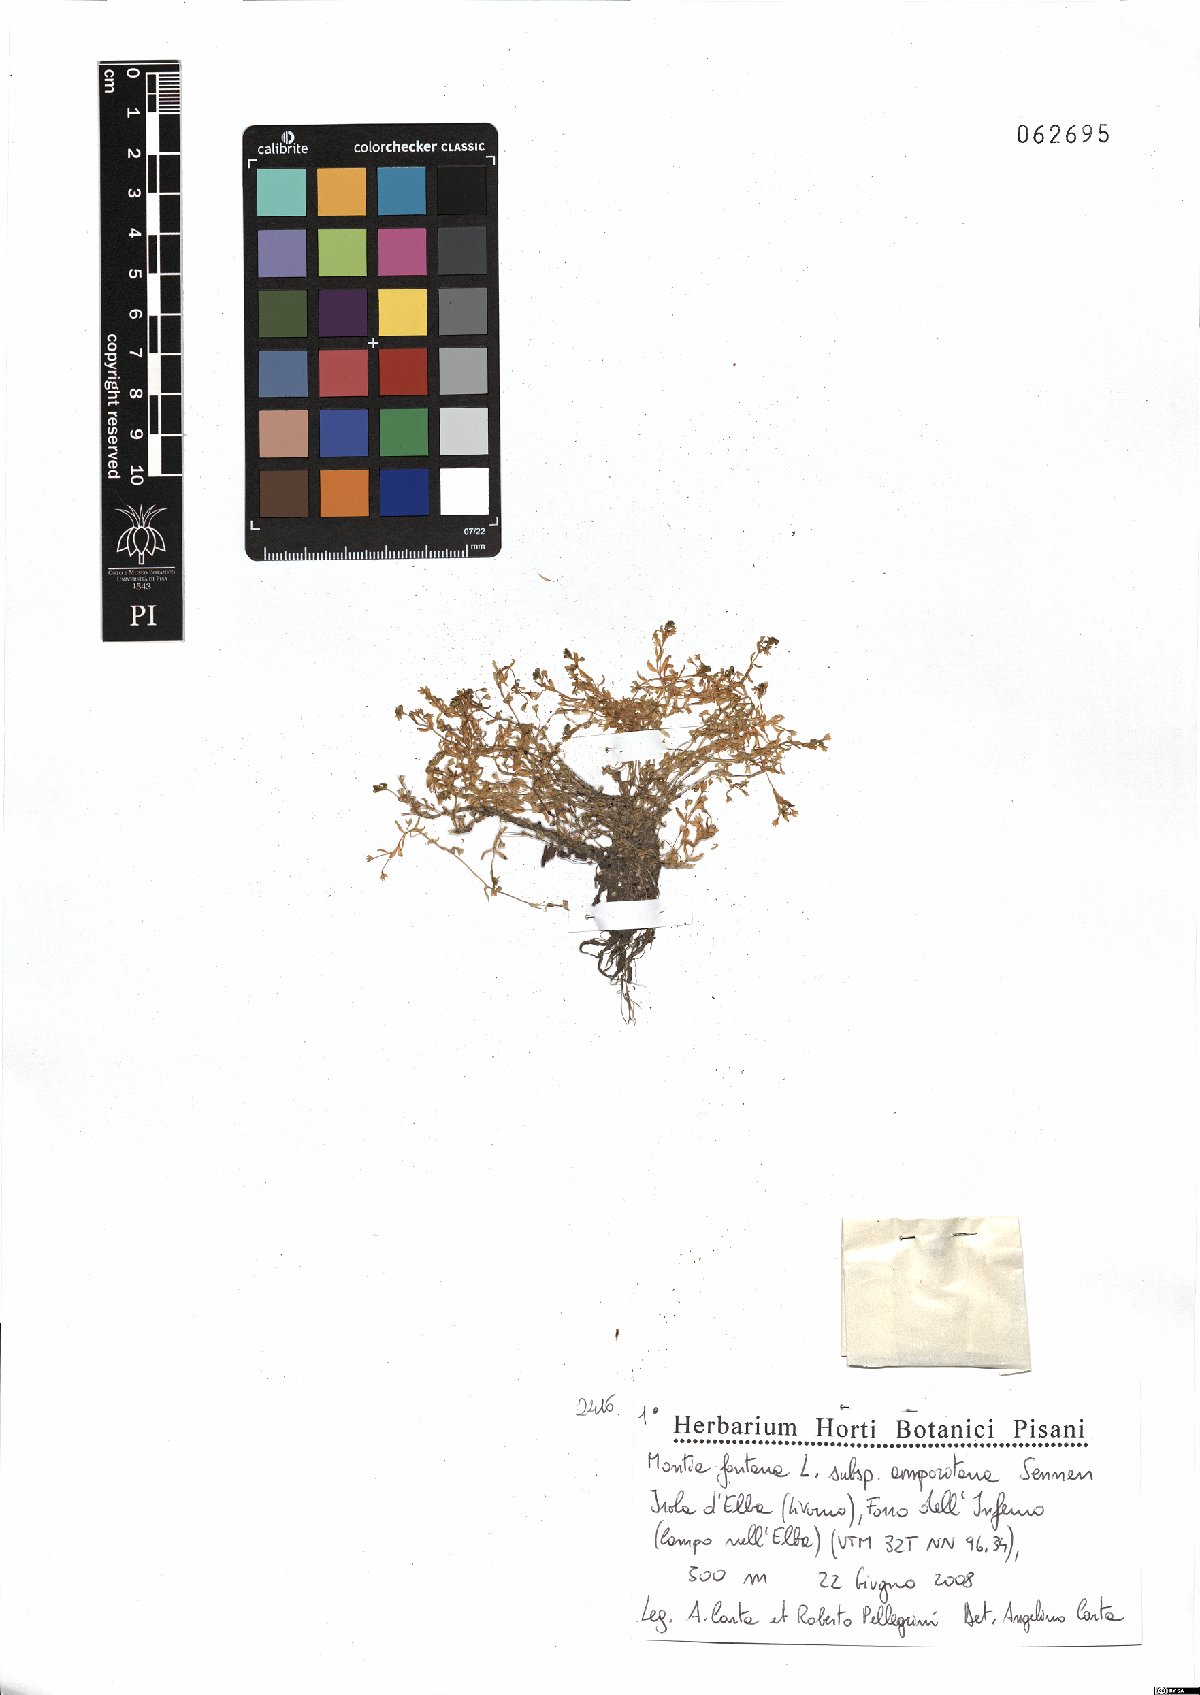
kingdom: Plantae
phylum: Tracheophyta
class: Magnoliopsida
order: Caryophyllales
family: Montiaceae
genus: Montia
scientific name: Montia fontana
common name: Blinks
